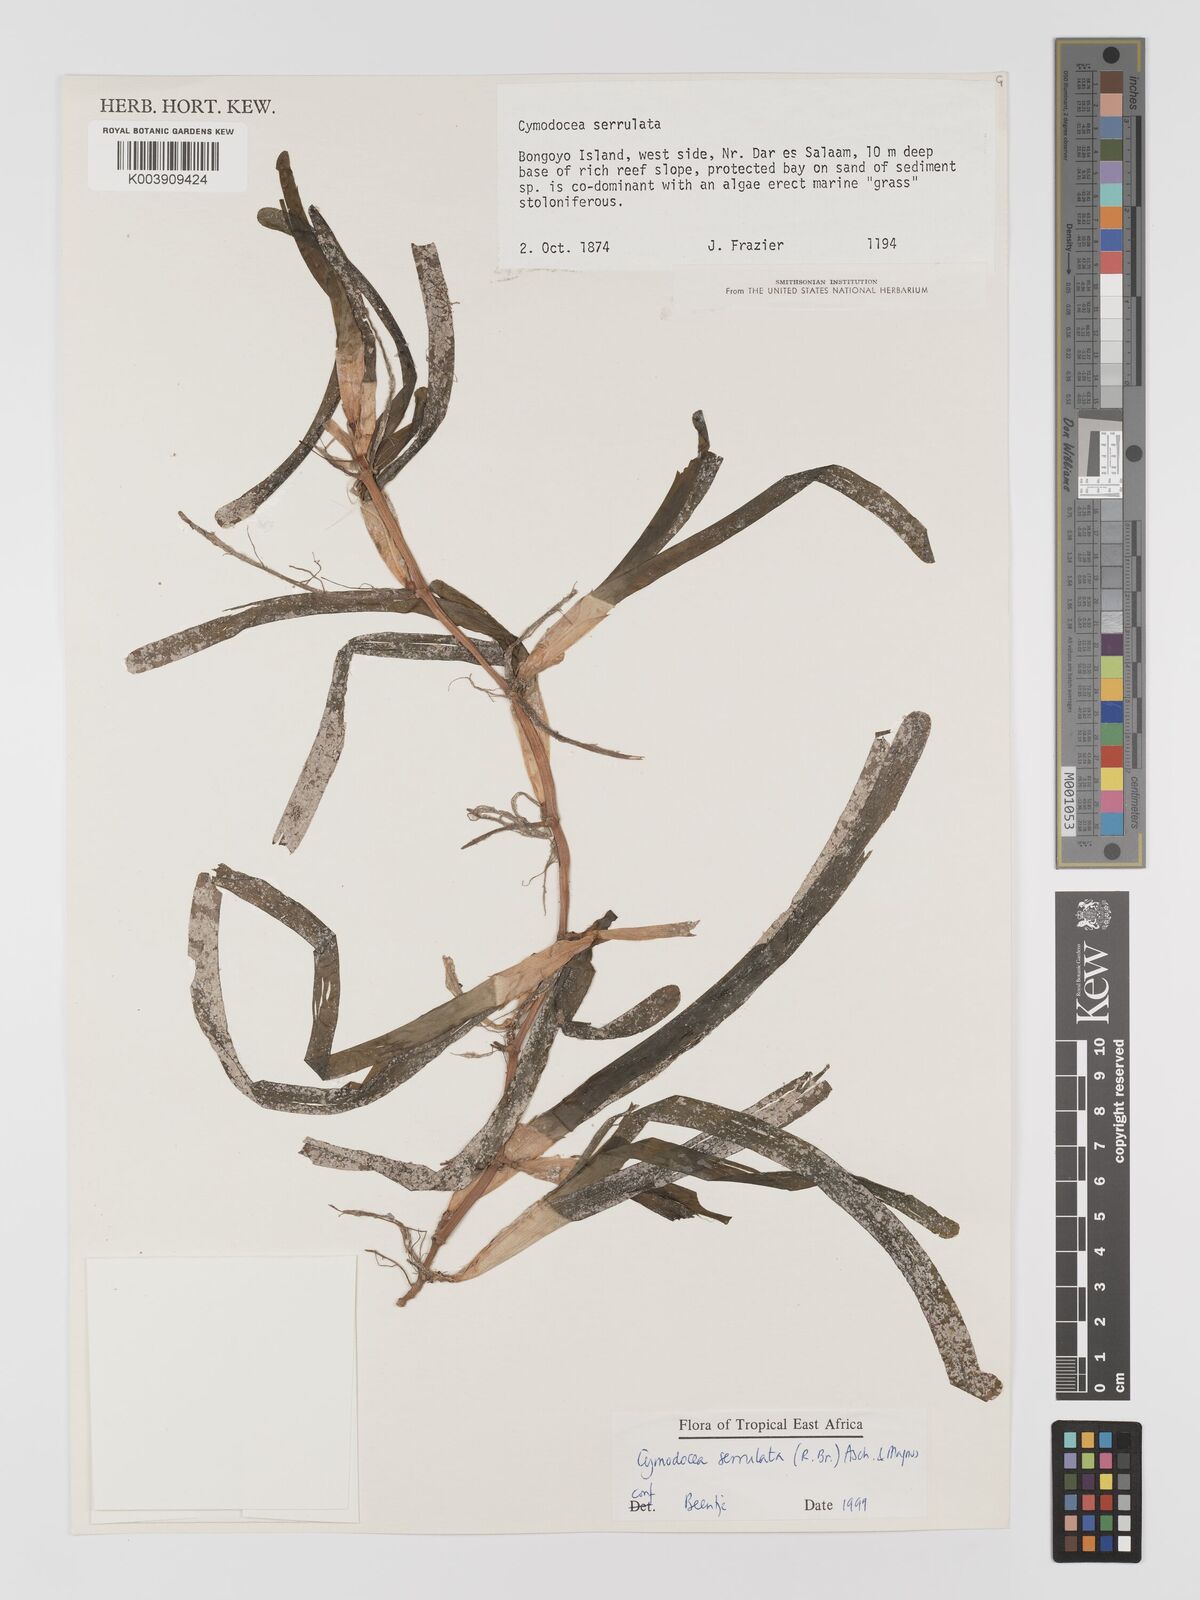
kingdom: Plantae
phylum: Tracheophyta
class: Liliopsida
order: Alismatales
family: Cymodoceaceae
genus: Oceana
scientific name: Oceana serrulata
